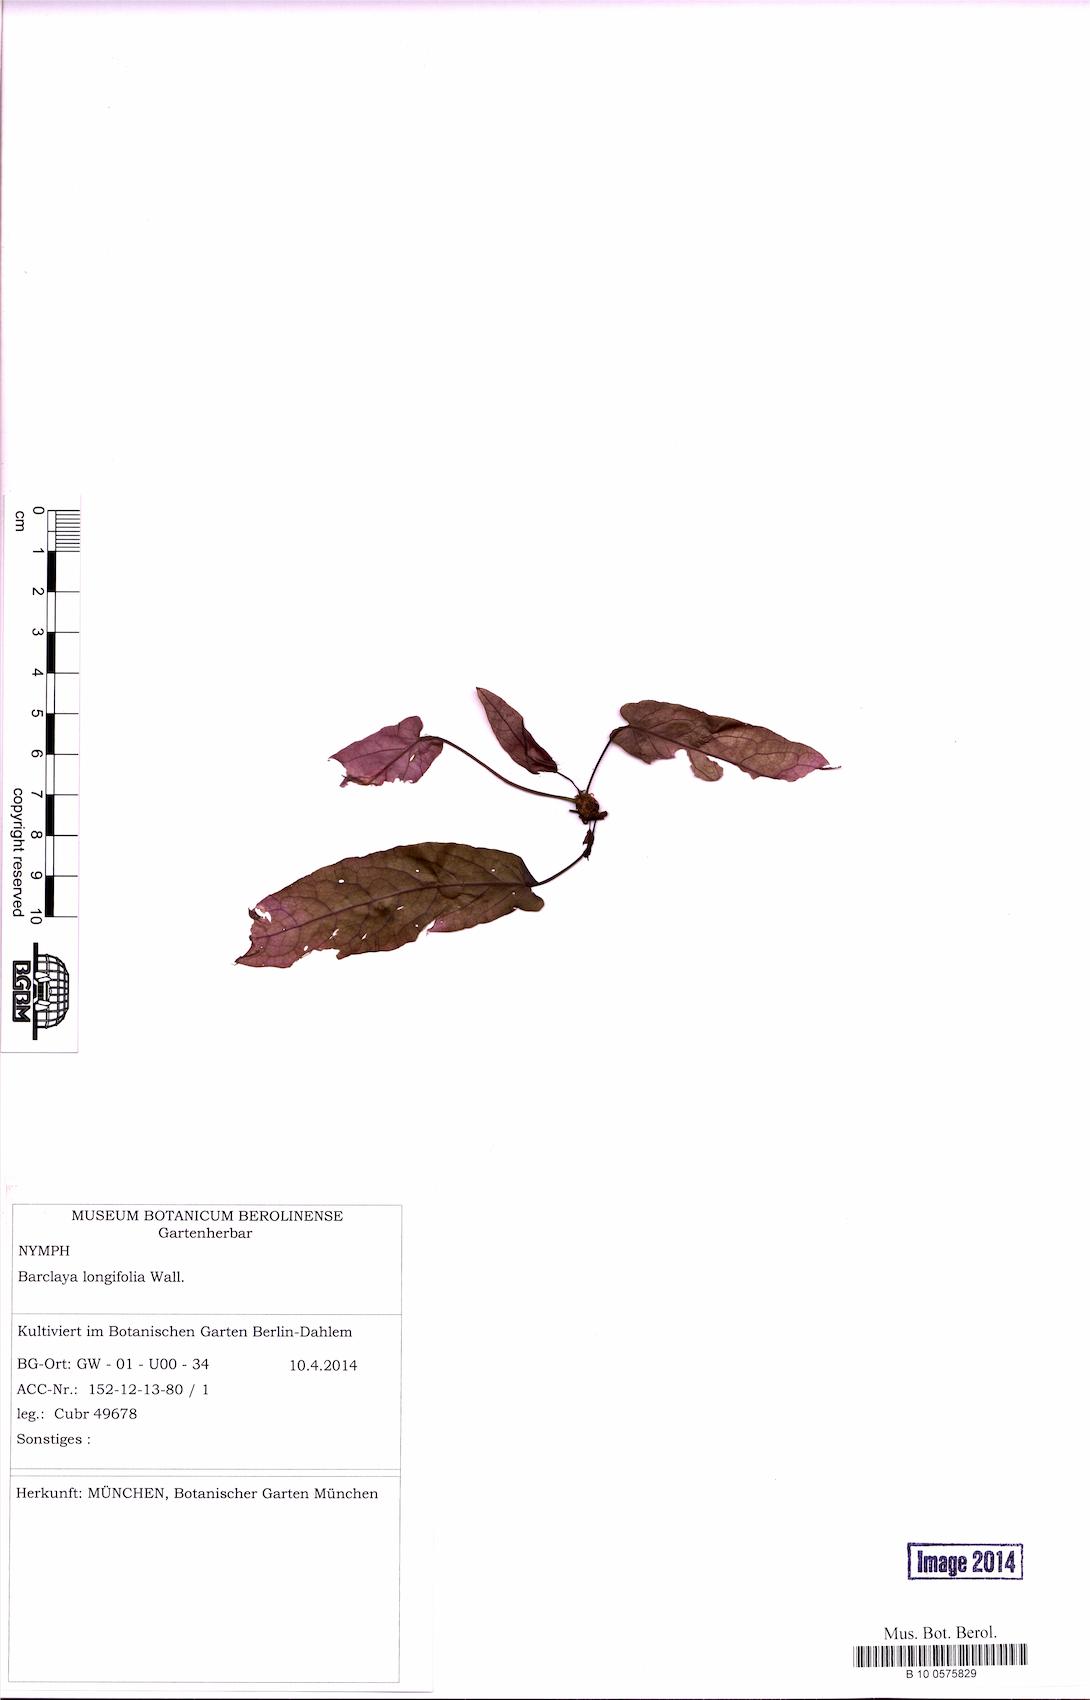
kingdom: Plantae
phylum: Tracheophyta
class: Magnoliopsida
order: Nymphaeales
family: Nymphaeaceae
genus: Barclaya
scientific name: Barclaya longifolia
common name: Orchid lily
